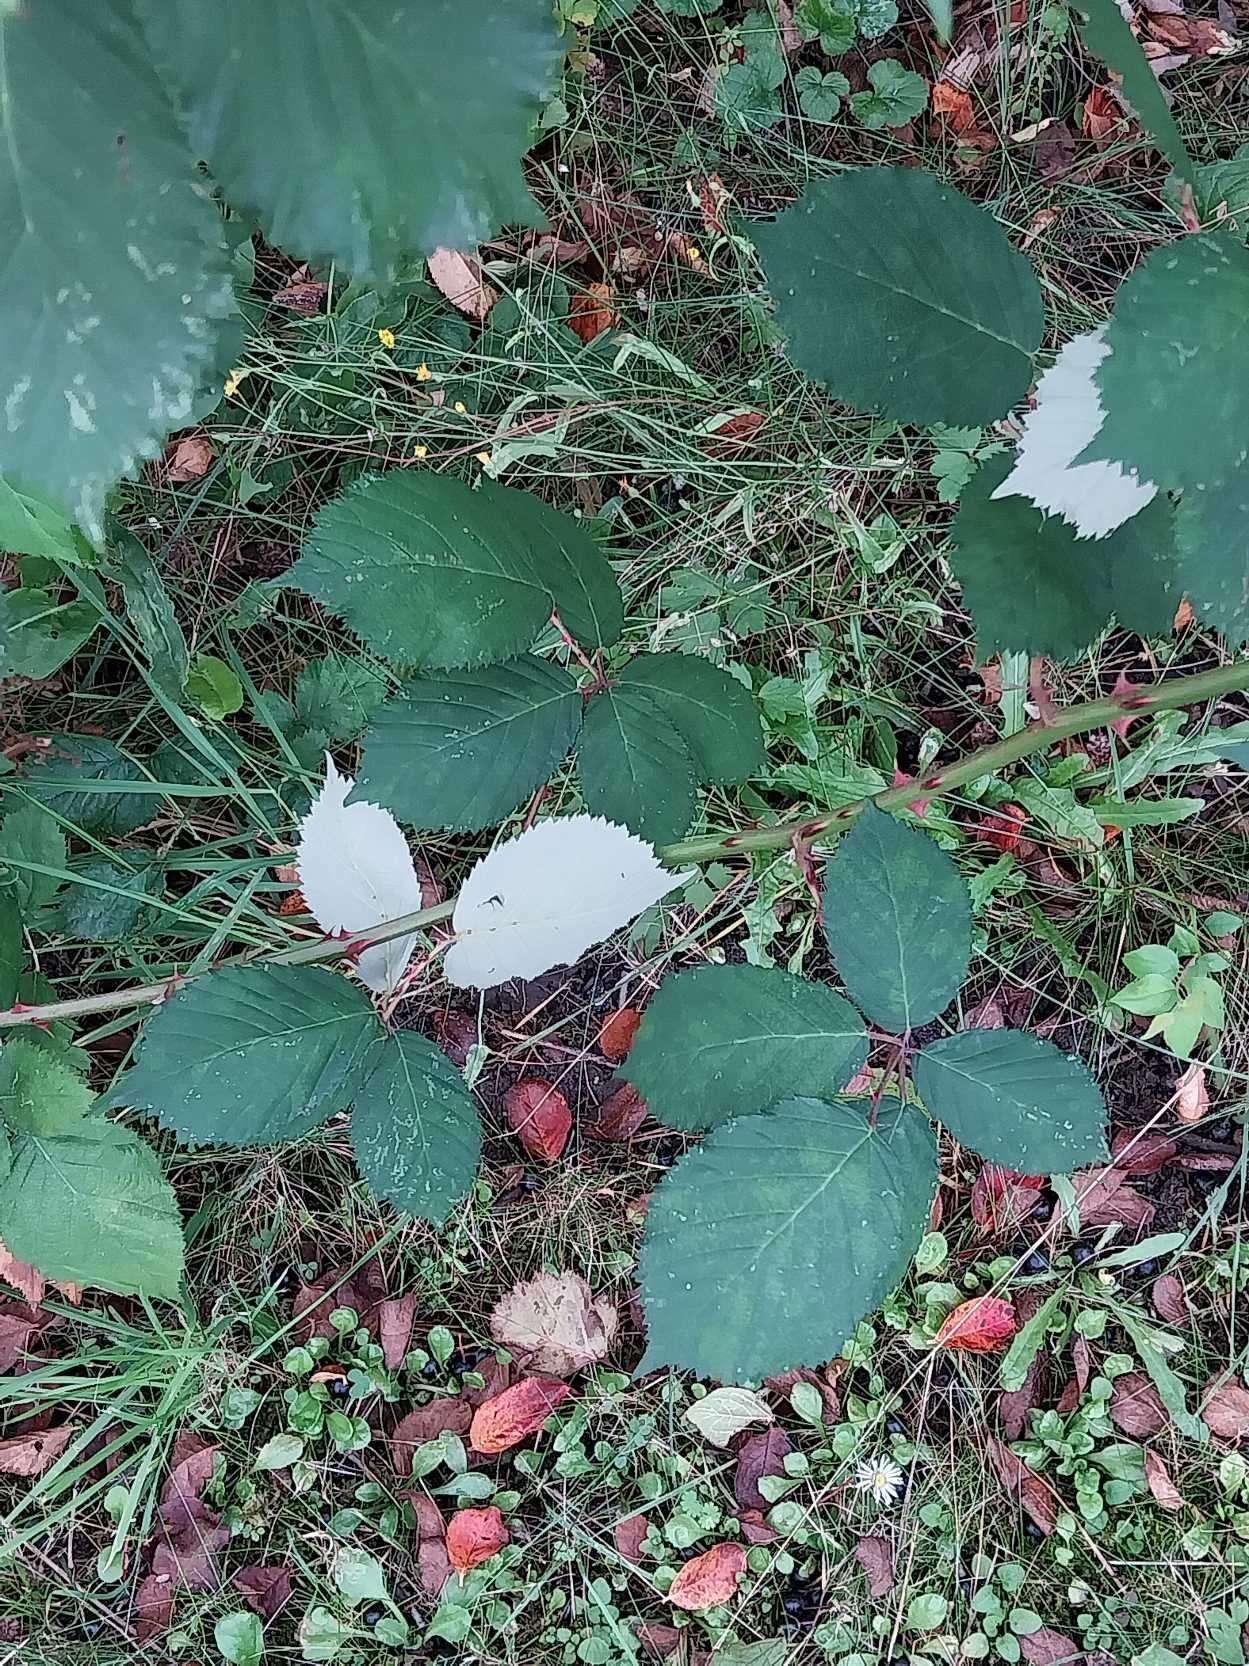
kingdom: Plantae
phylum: Tracheophyta
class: Magnoliopsida
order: Rosales
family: Rosaceae
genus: Rubus
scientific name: Rubus armeniacus
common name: Armensk brombær
